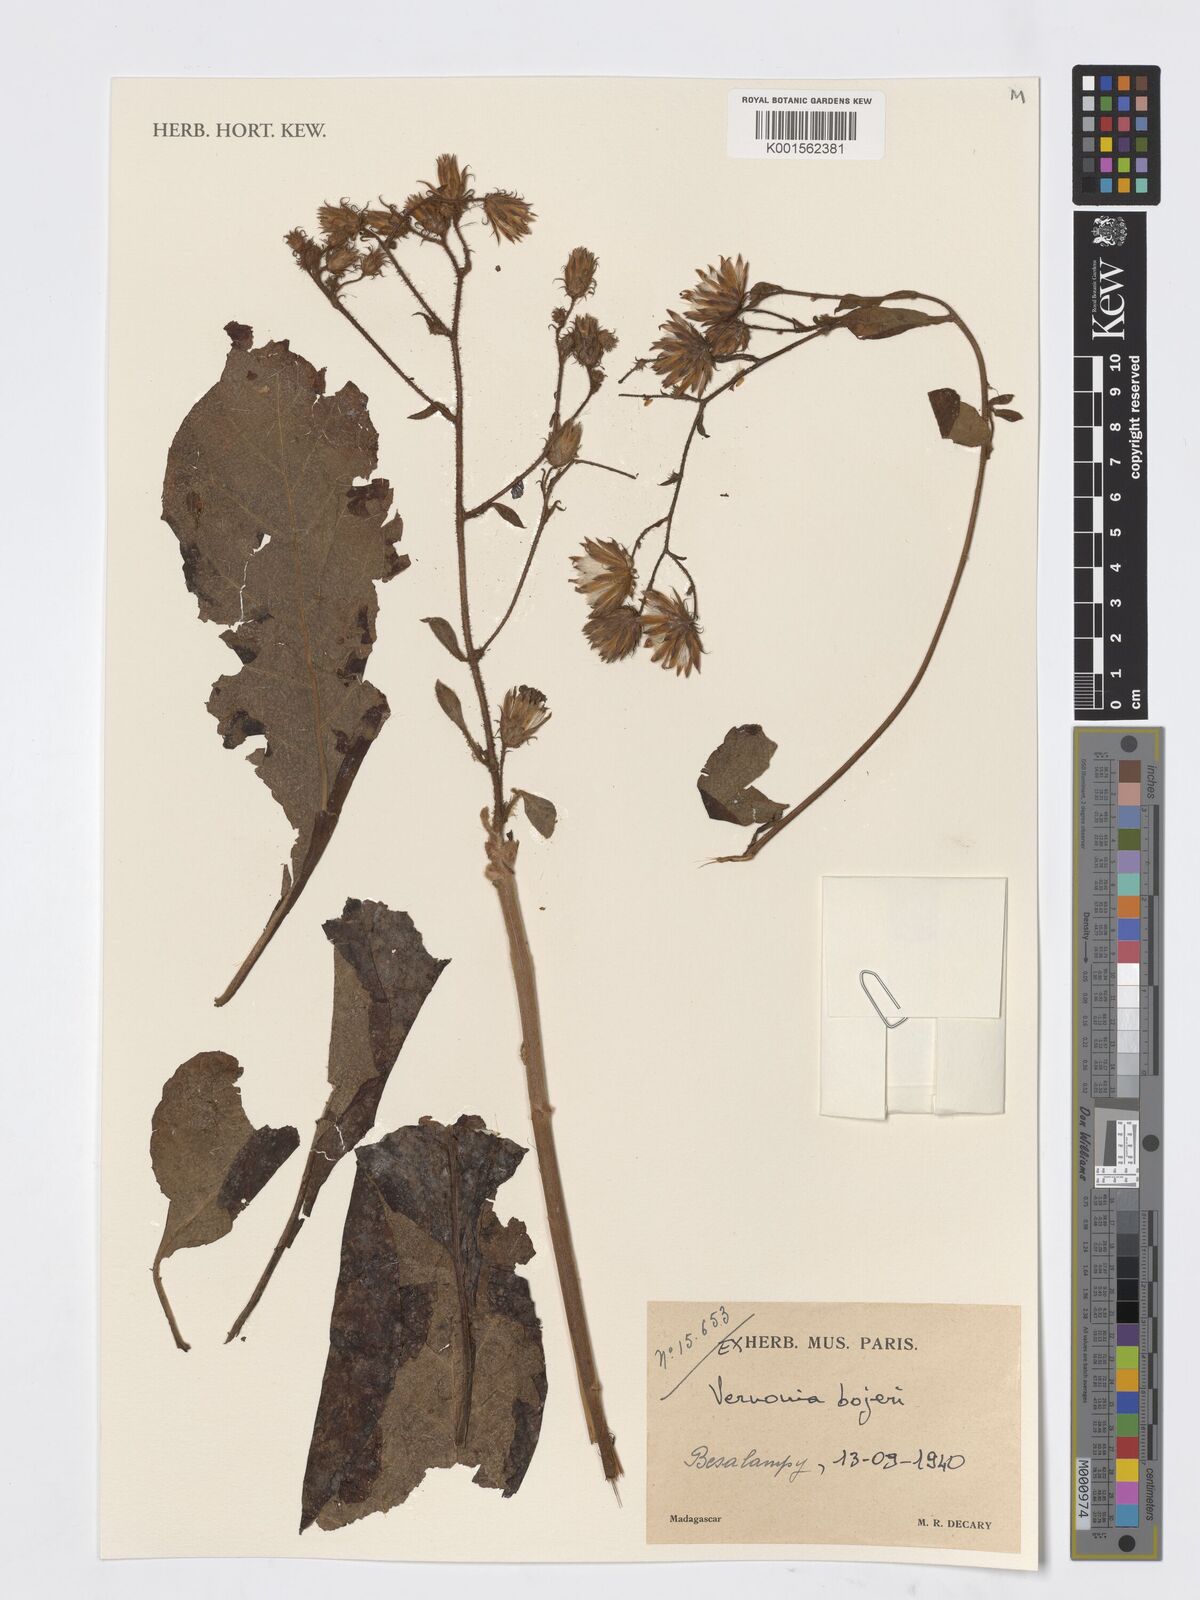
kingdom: Plantae
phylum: Tracheophyta
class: Magnoliopsida
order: Asterales
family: Asteraceae
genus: Vernonia
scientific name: Vernonia galamensis
